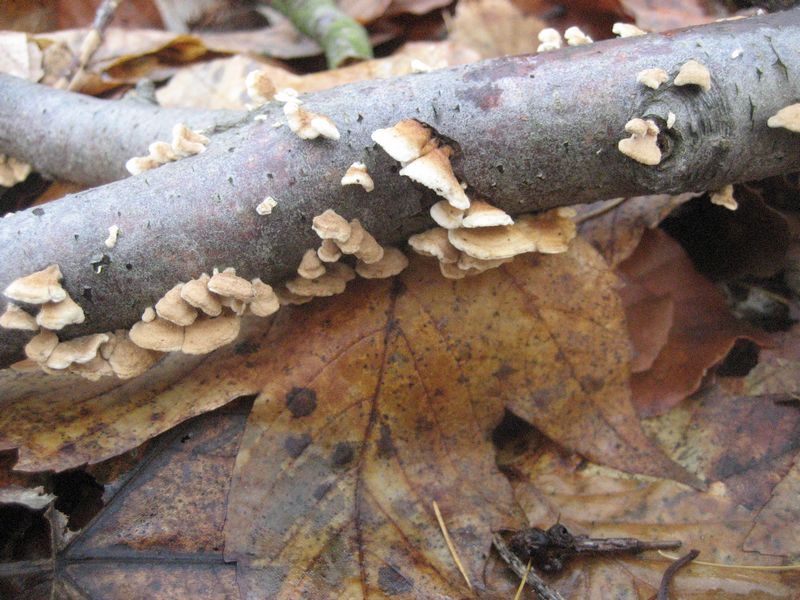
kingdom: Fungi
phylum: Basidiomycota
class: Agaricomycetes
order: Amylocorticiales
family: Amylocorticiaceae
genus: Plicaturopsis
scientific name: Plicaturopsis crispa
